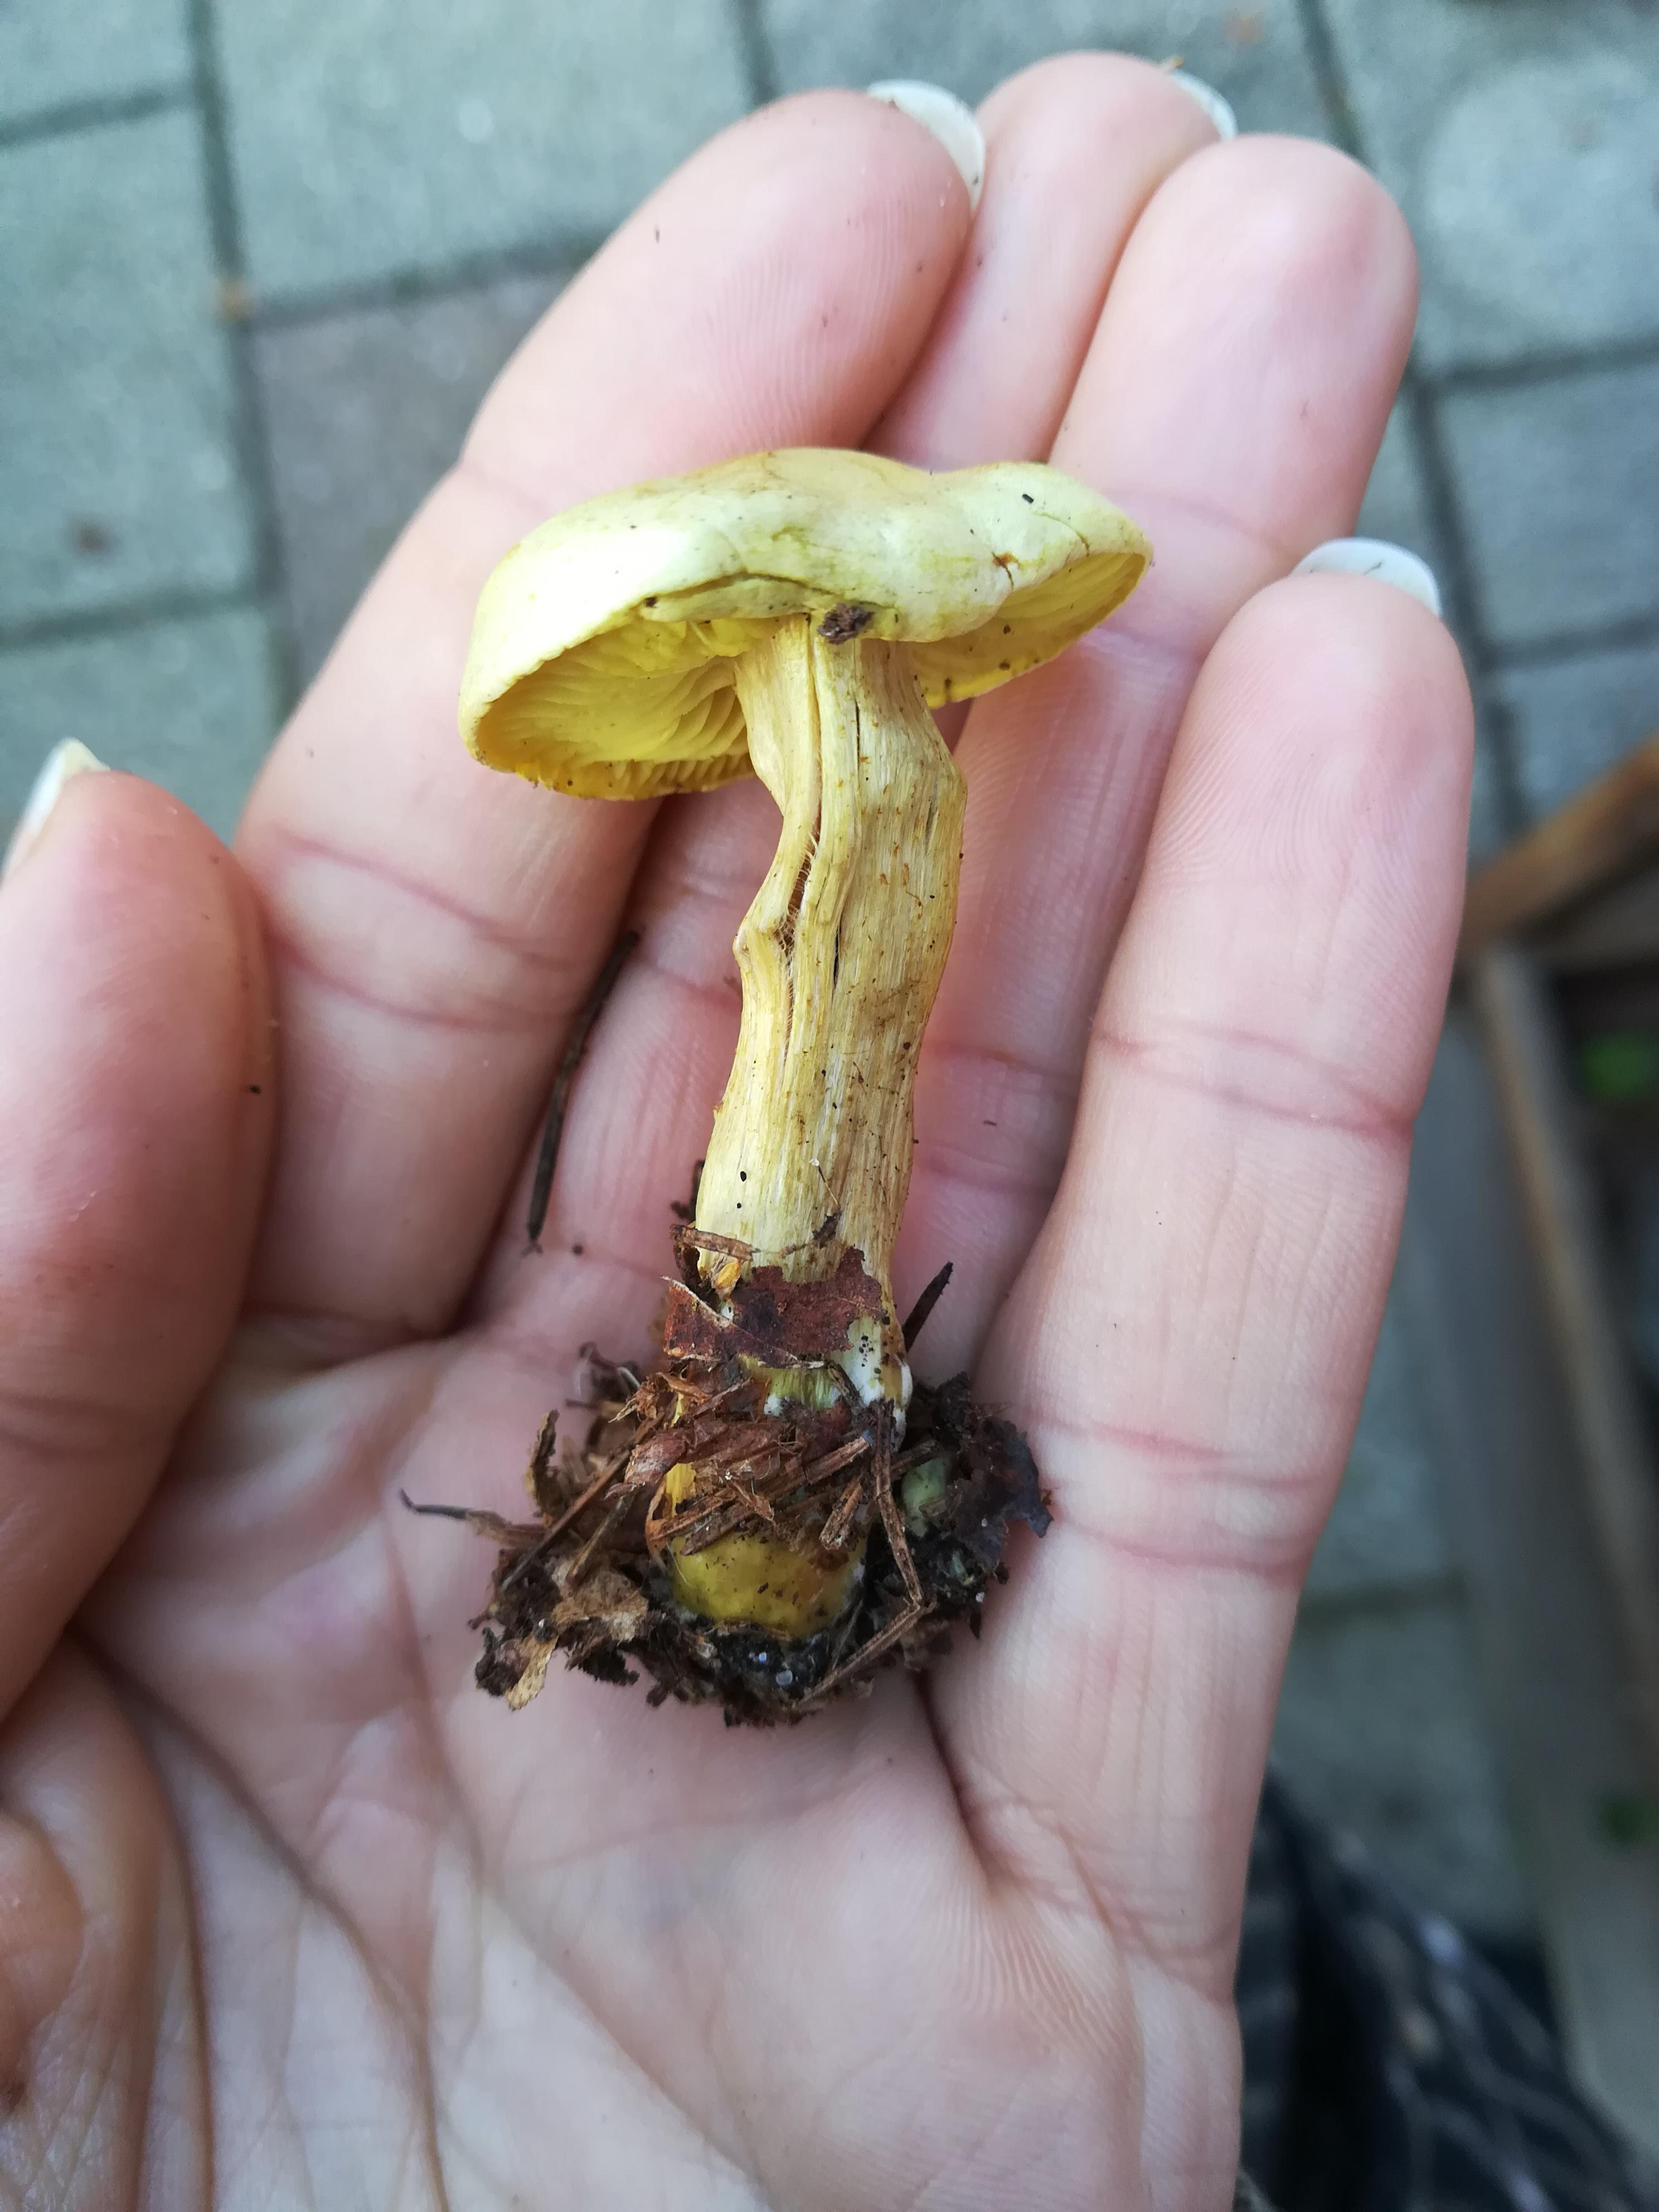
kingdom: Fungi
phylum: Basidiomycota
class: Agaricomycetes
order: Agaricales
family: Tricholomataceae
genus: Tricholoma
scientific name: Tricholoma sulphureum
